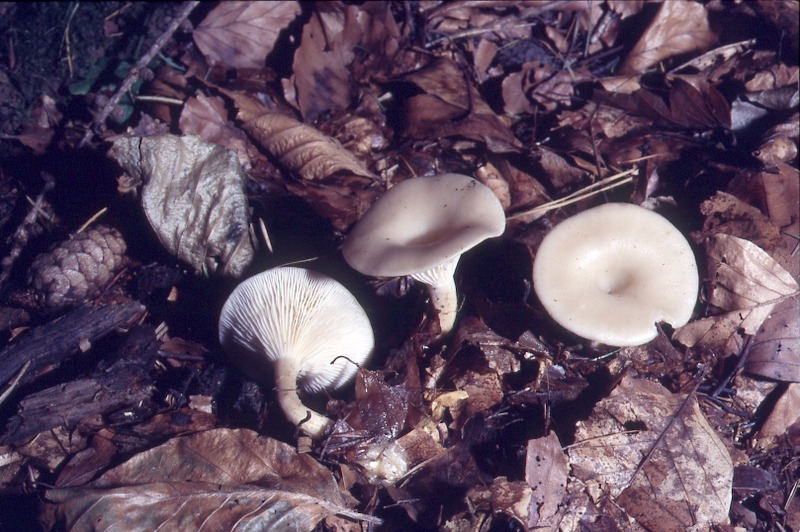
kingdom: Fungi
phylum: Basidiomycota
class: Agaricomycetes
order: Agaricales
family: Tricholomataceae
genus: Clitocybe
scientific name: Clitocybe hydrogramma
